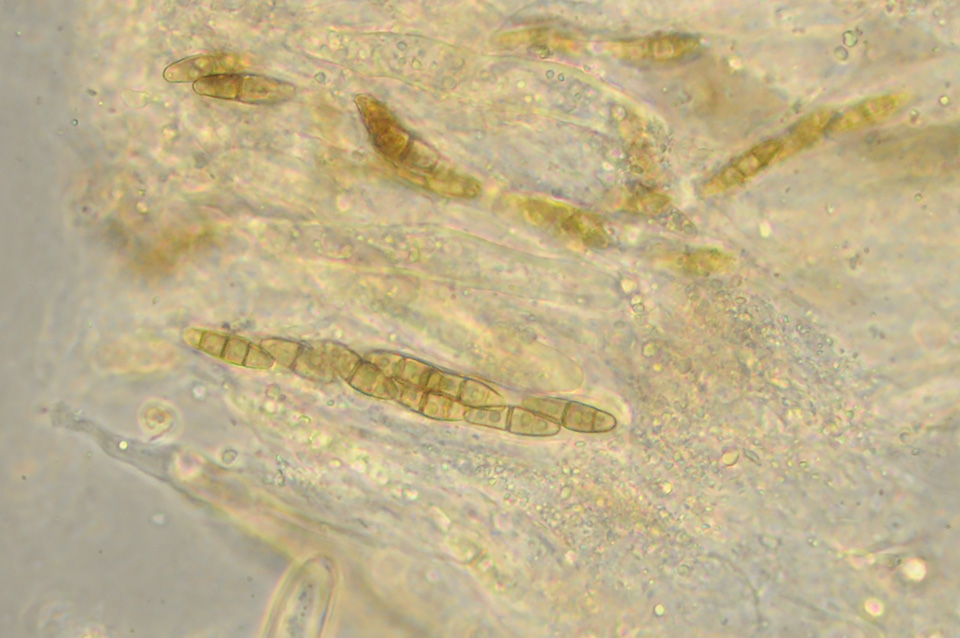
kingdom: Fungi
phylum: Ascomycota
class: Dothideomycetes
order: Hysteriales
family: Hysteriaceae
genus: Hysterium
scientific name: Hysterium acuminatum
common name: almindelig kulmund
